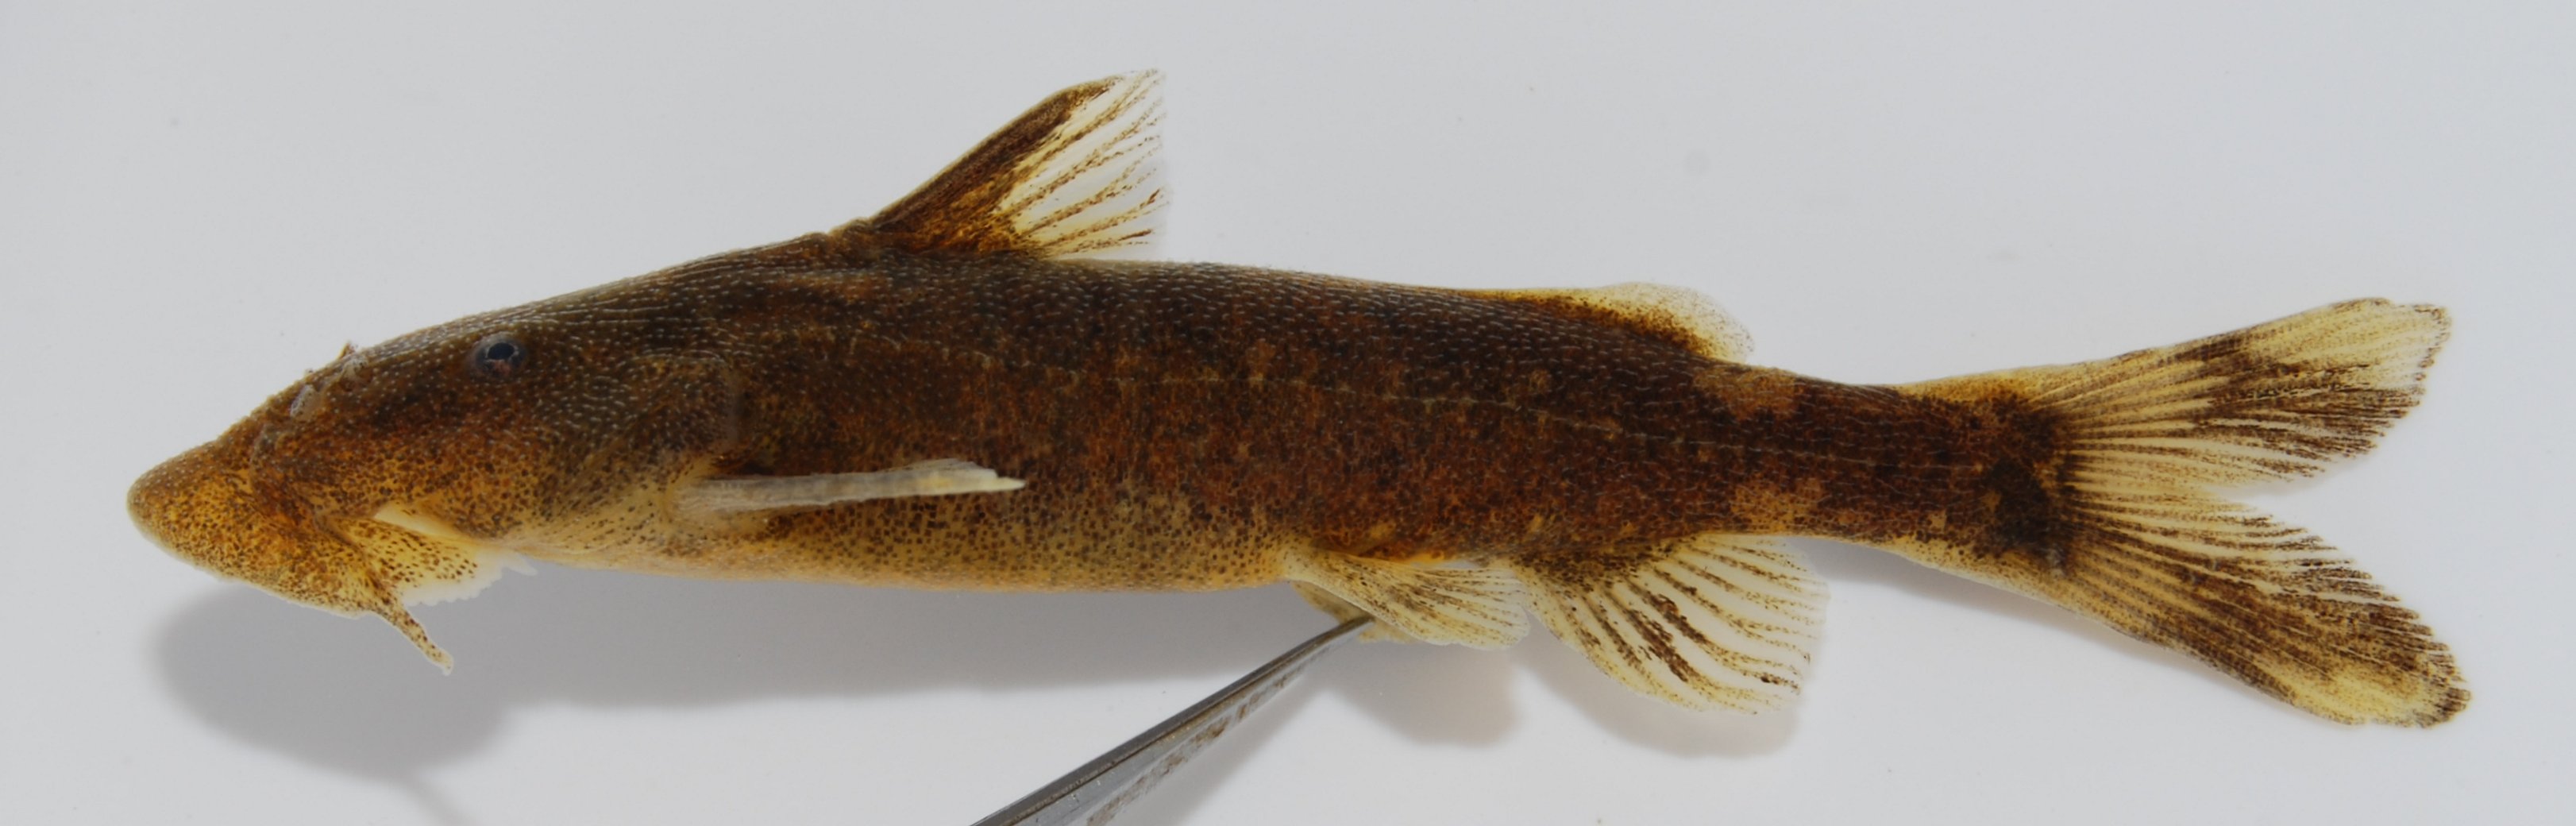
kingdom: Animalia
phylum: Chordata
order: Siluriformes
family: Mochokidae
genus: Chiloglanis
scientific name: Chiloglanis
